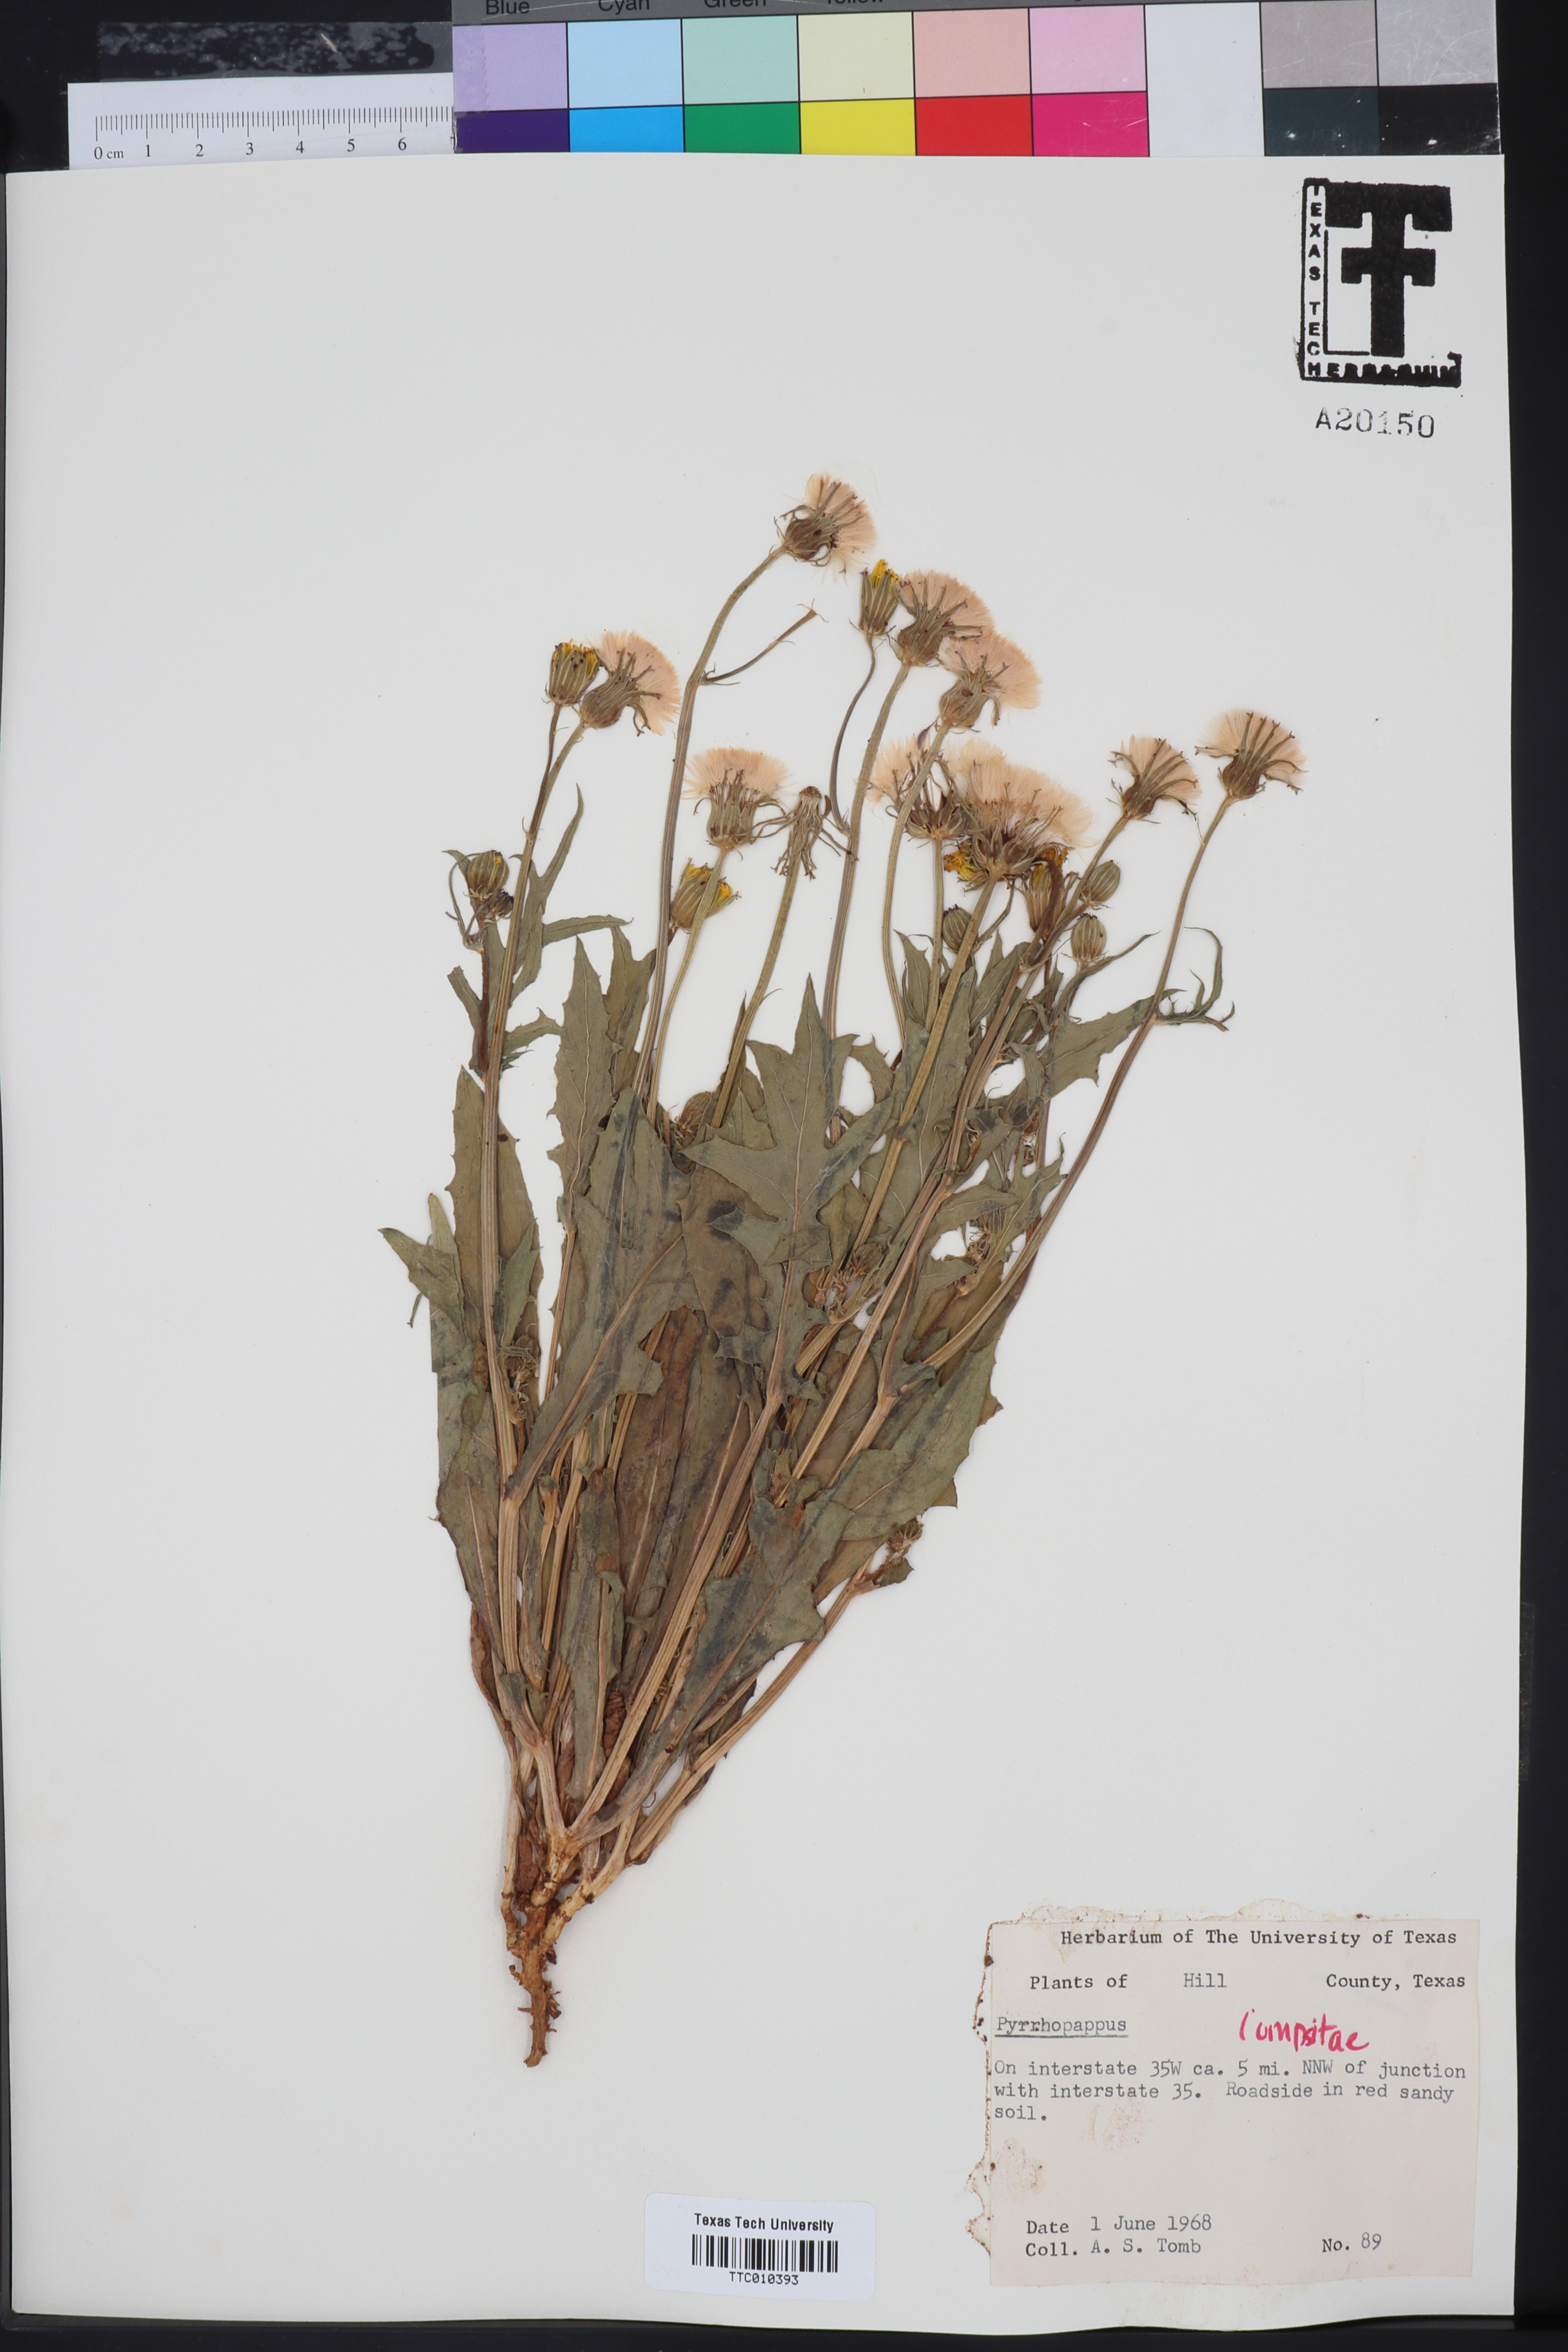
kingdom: Plantae
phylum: Tracheophyta
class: Magnoliopsida
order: Asterales
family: Asteraceae
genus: Pyrrhopappus
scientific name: Pyrrhopappus
